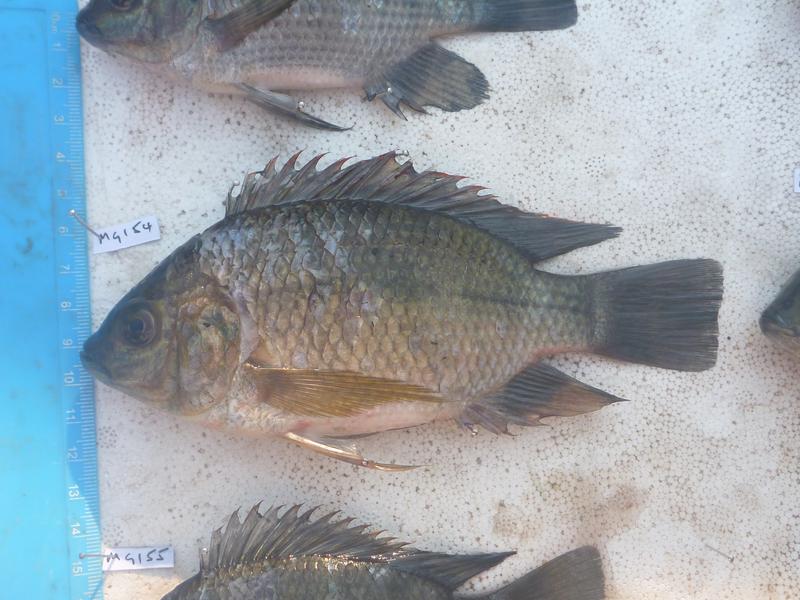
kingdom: Animalia
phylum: Chordata
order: Perciformes
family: Cichlidae
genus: Oreochromis
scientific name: Oreochromis upembae
